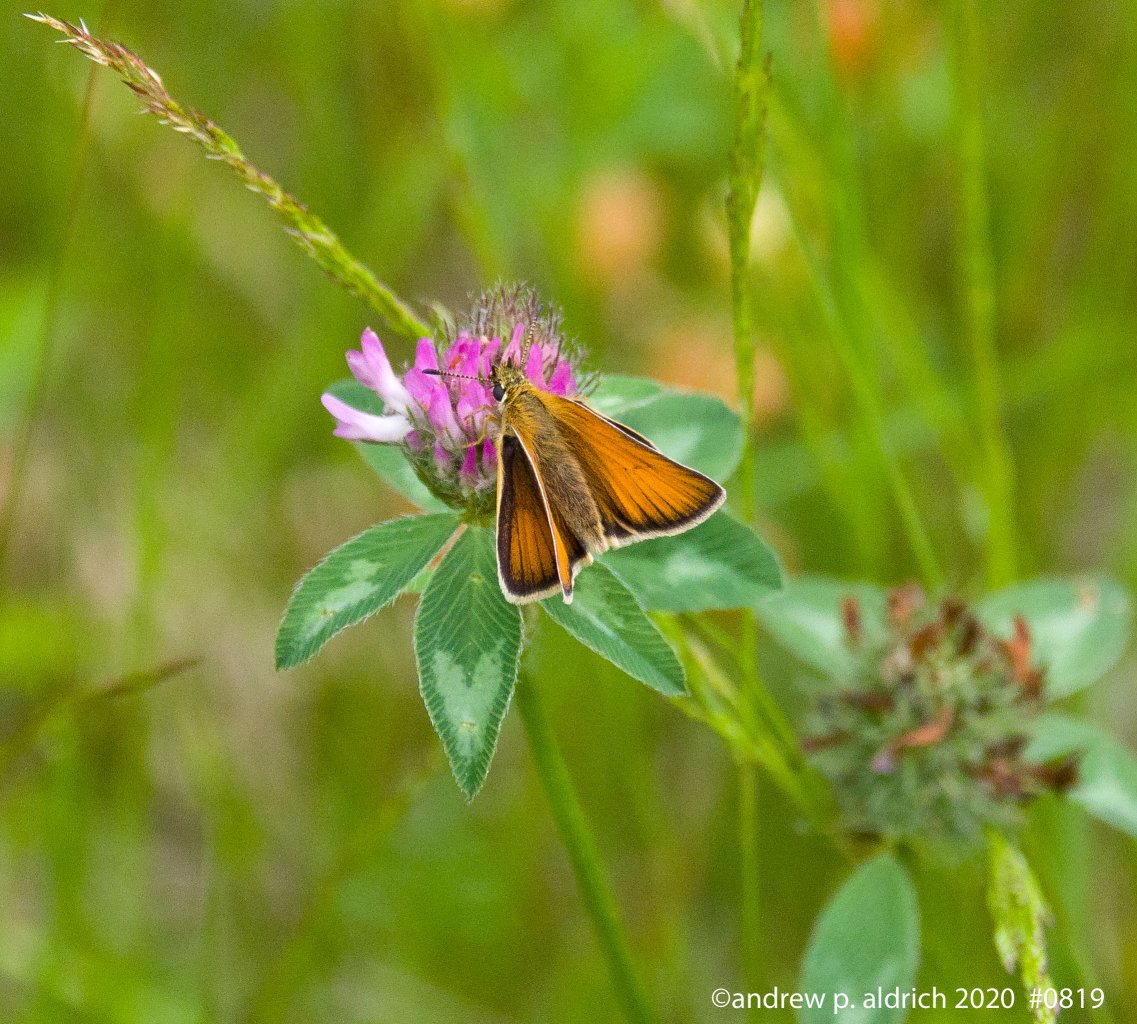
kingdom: Animalia
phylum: Arthropoda
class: Insecta
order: Lepidoptera
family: Hesperiidae
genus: Thymelicus
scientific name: Thymelicus lineola
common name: European Skipper
